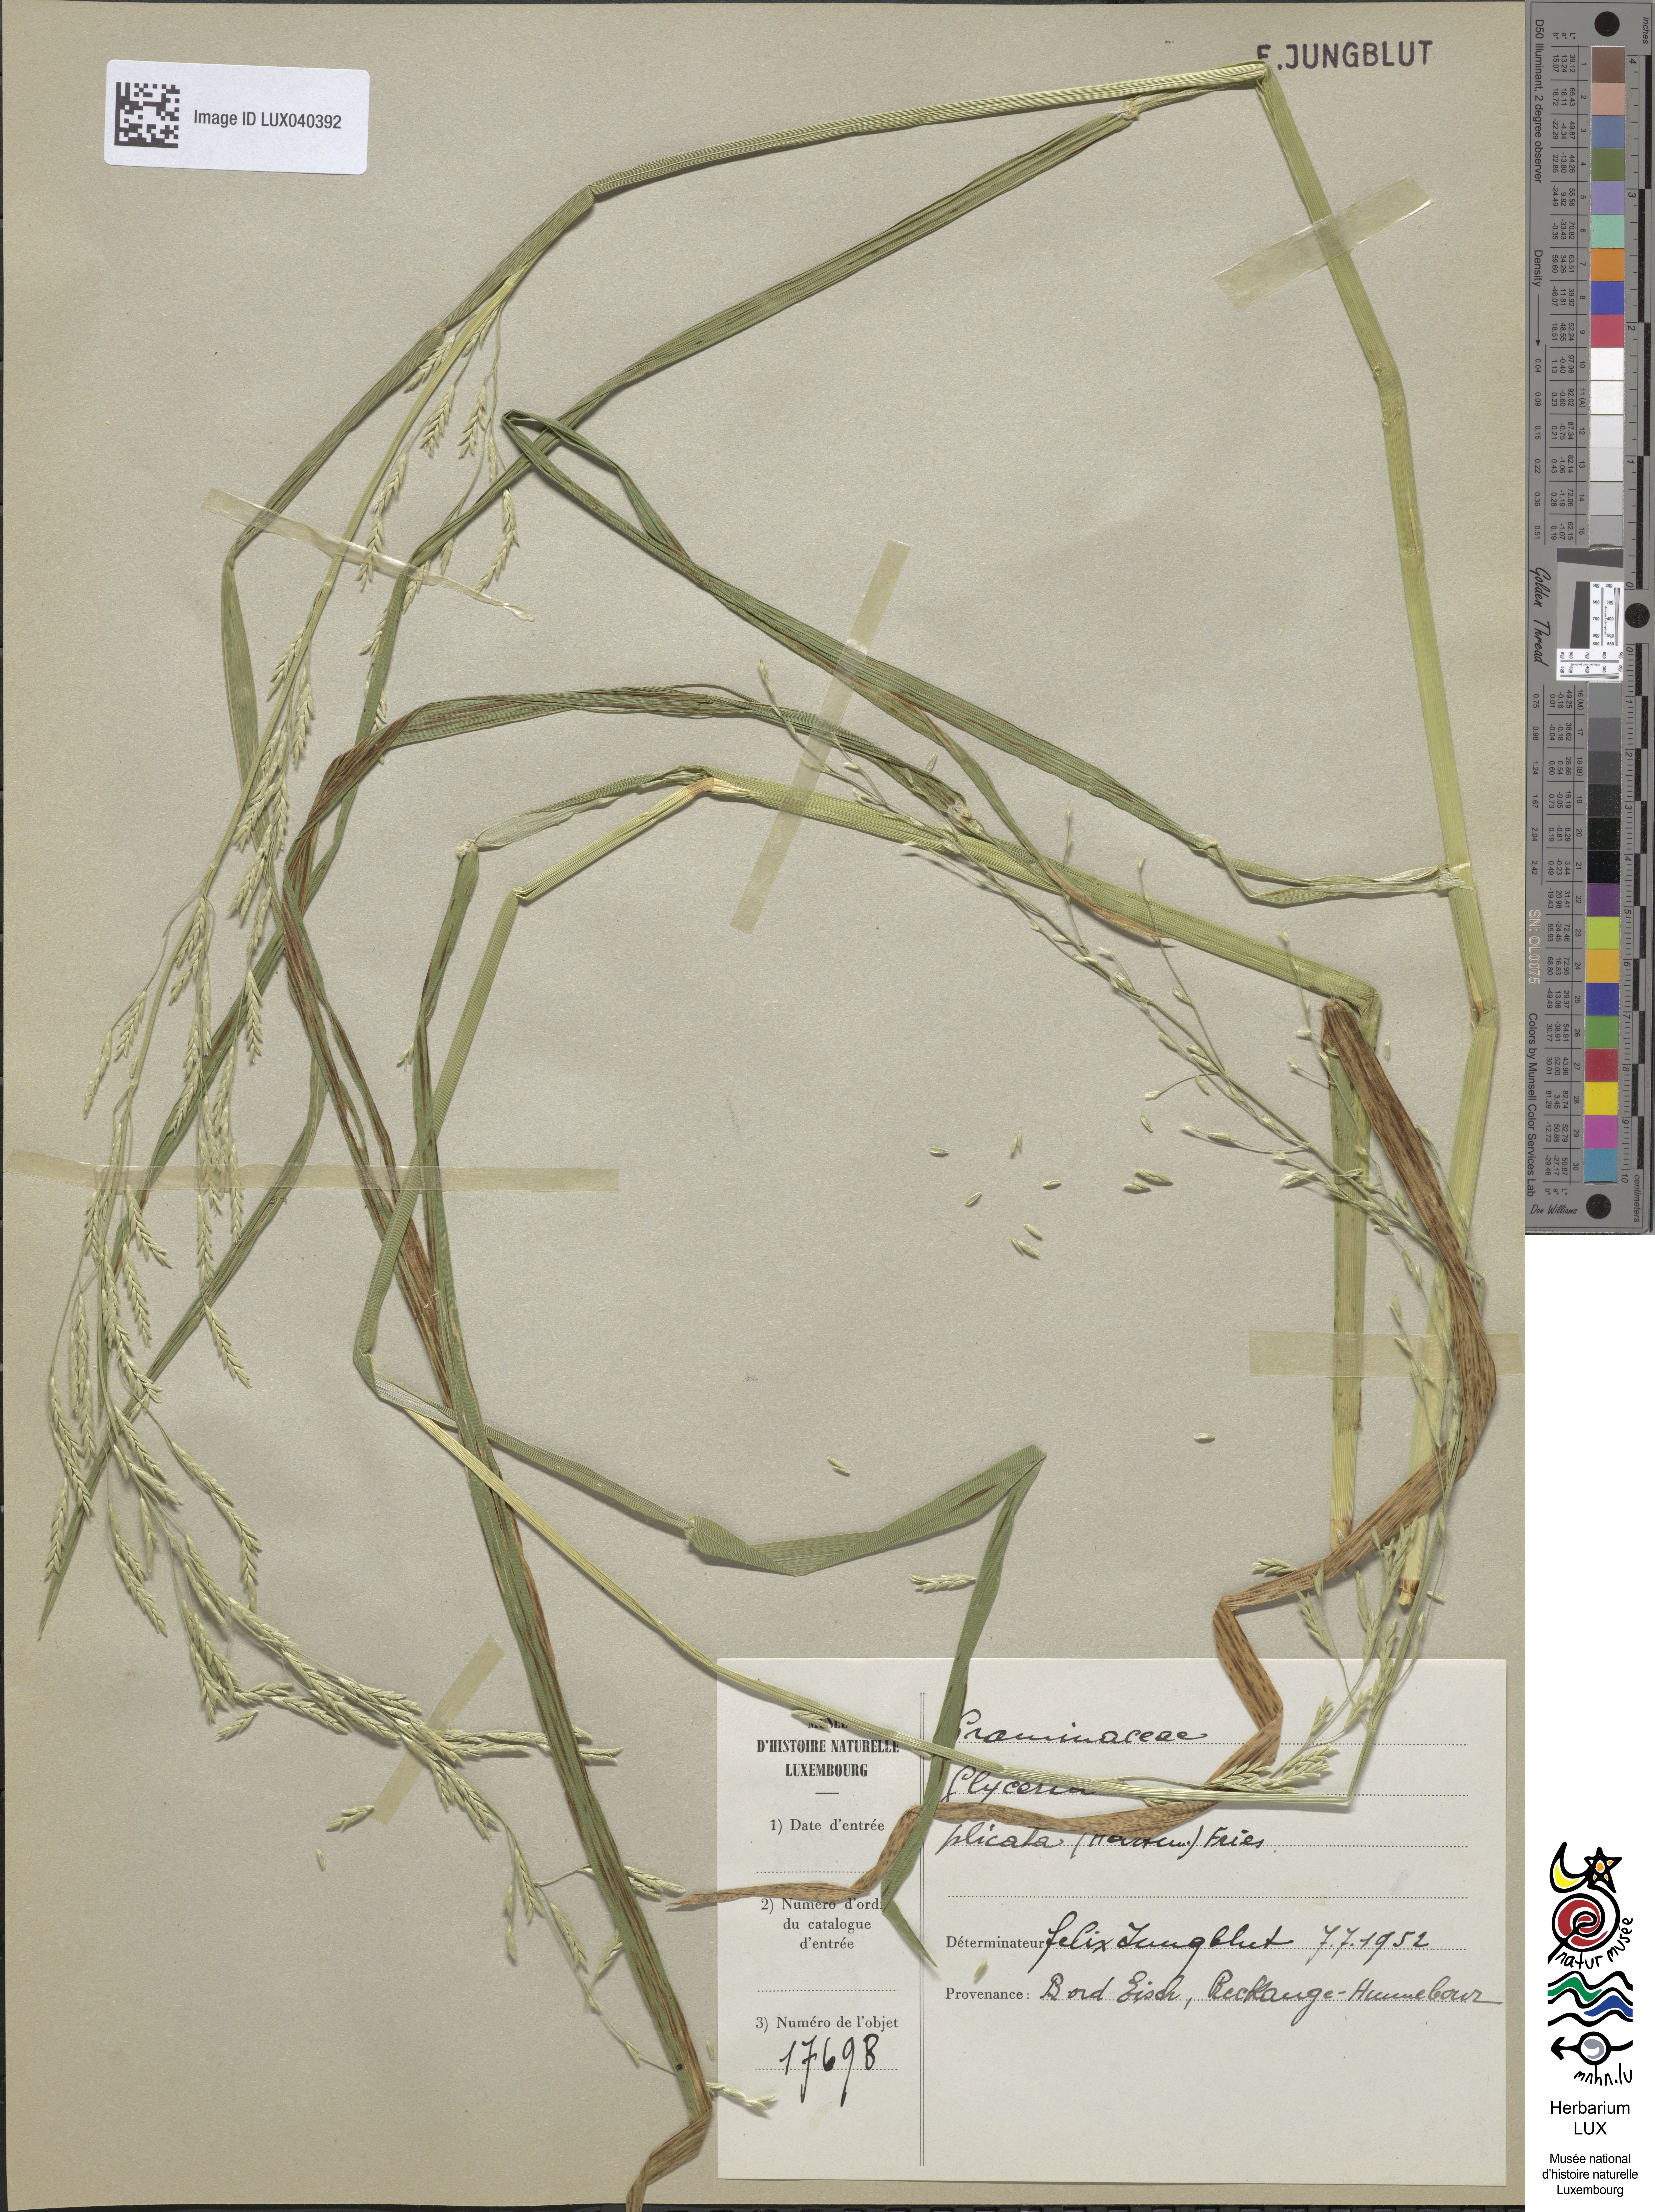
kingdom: Plantae
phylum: Tracheophyta
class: Liliopsida
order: Poales
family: Poaceae
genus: Glyceria
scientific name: Glyceria notata
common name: Plicate sweet-grass
